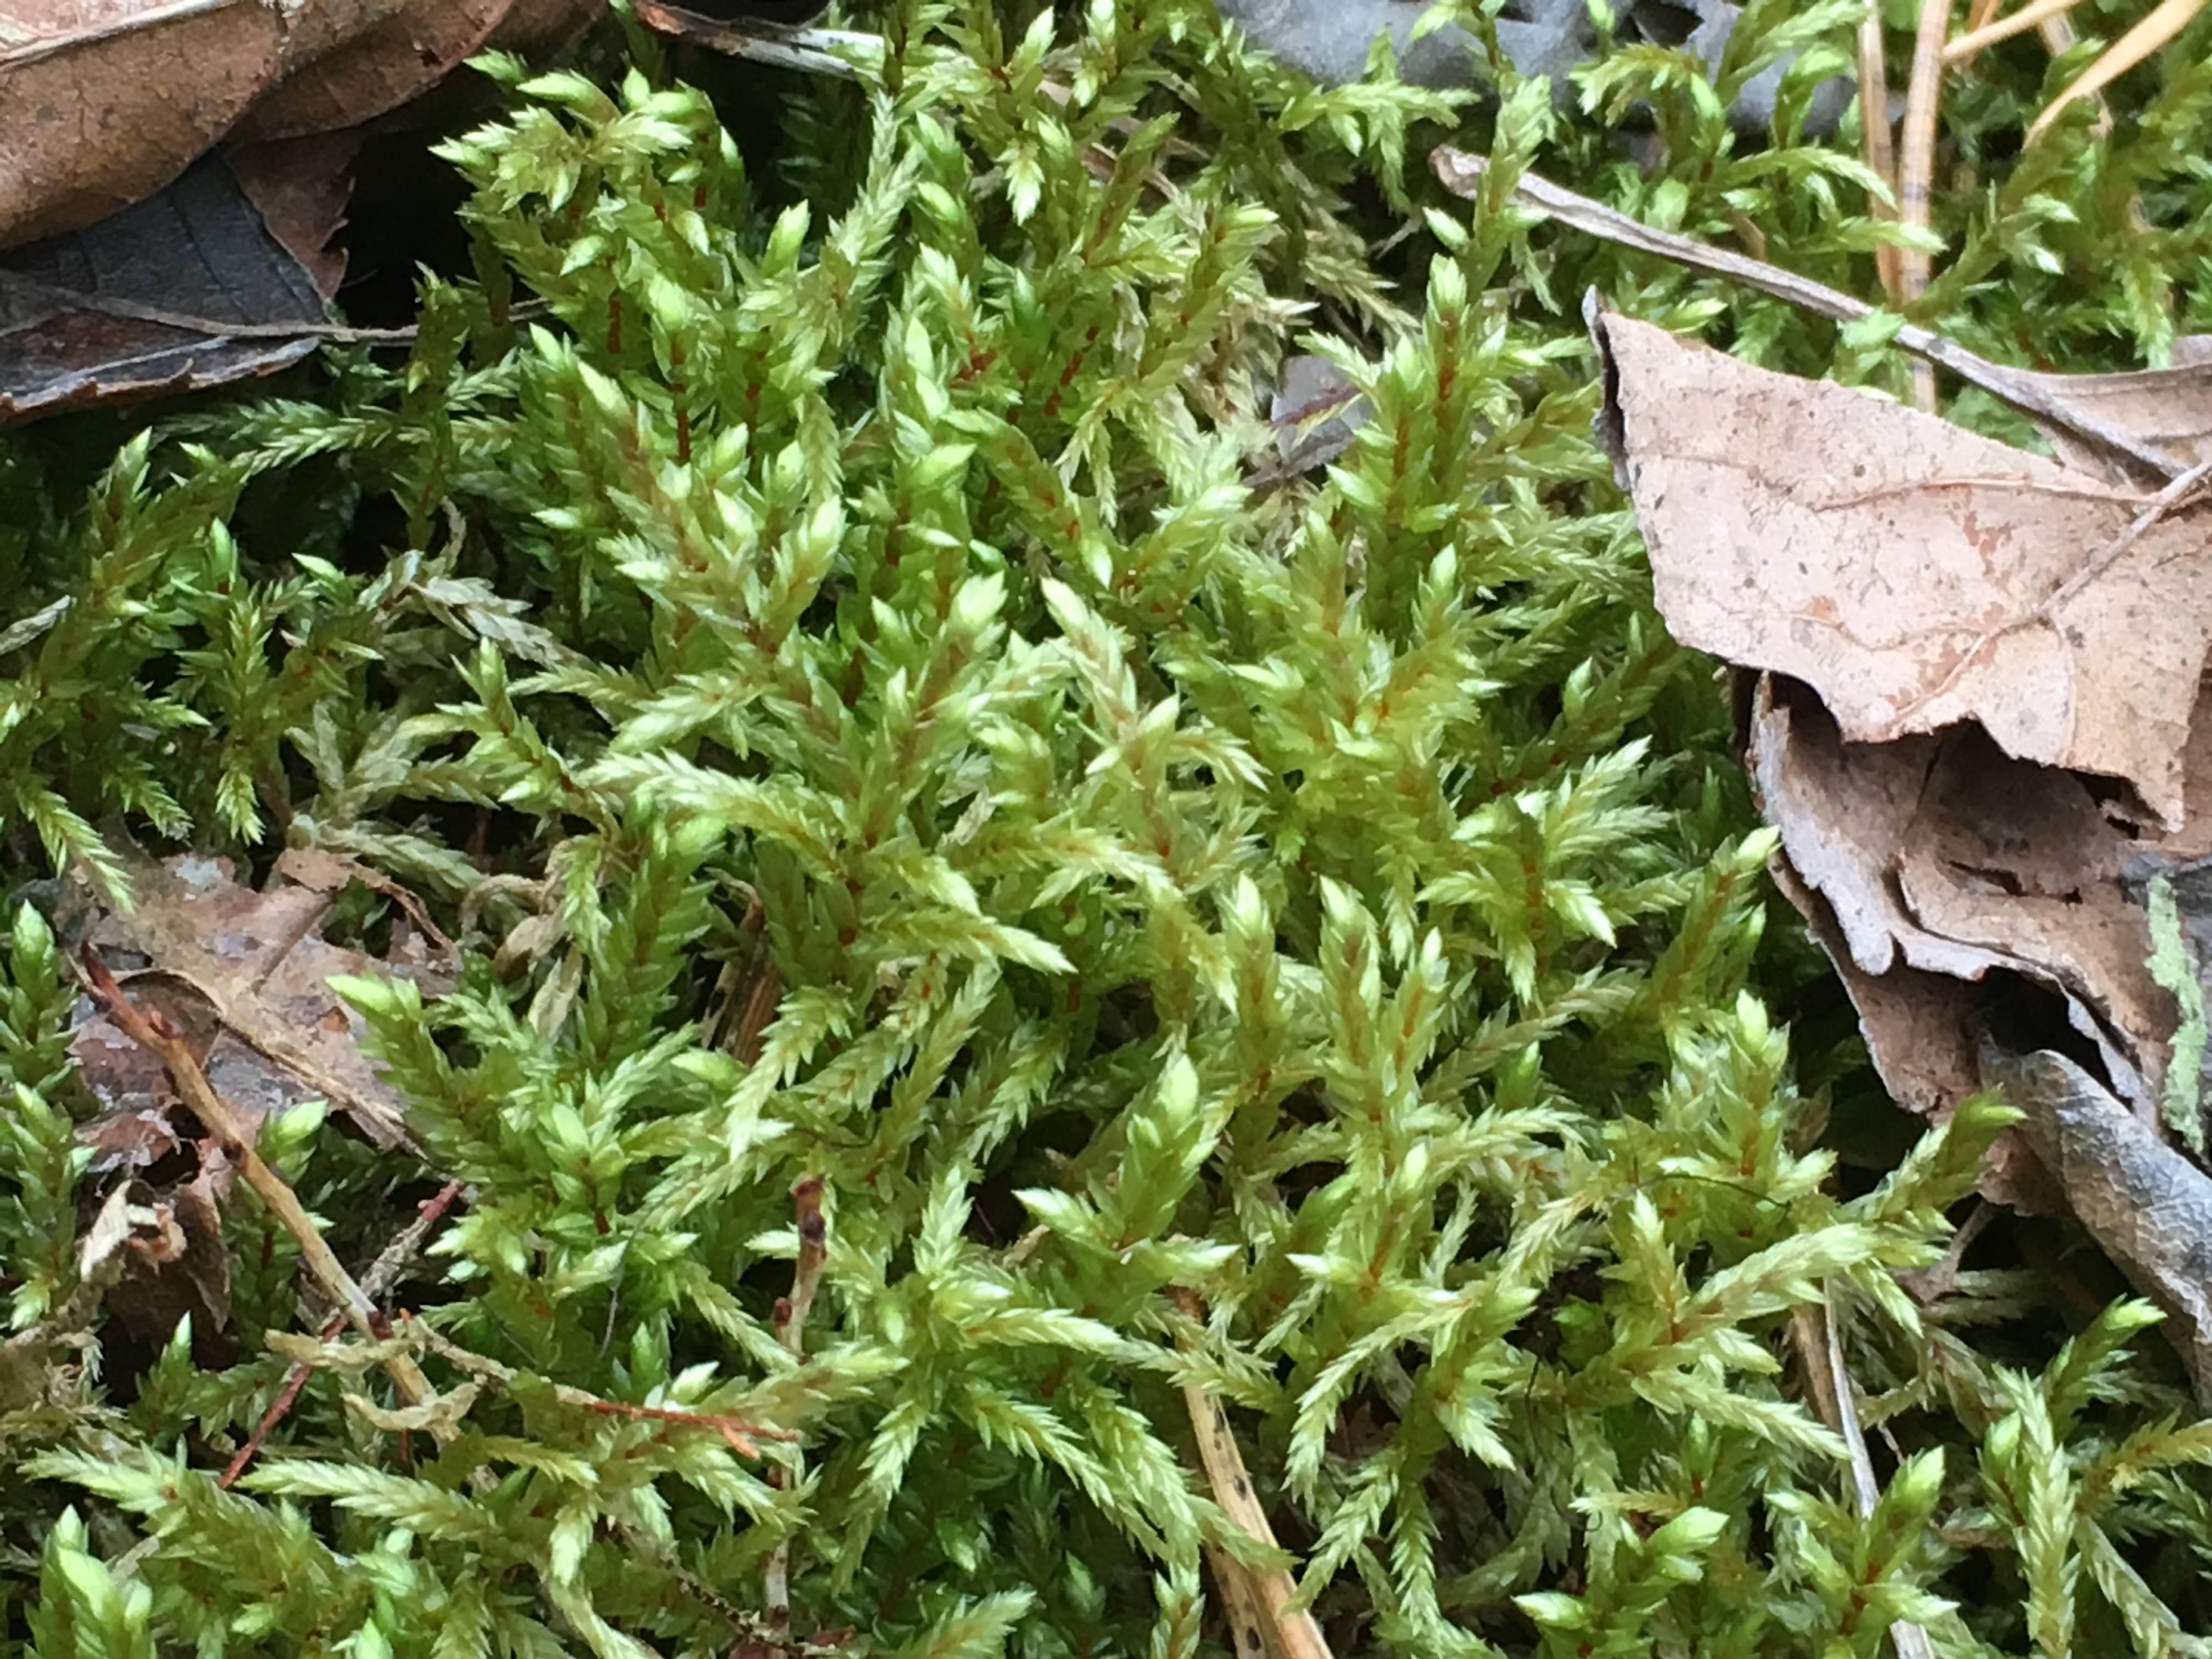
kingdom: Plantae
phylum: Bryophyta
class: Bryopsida
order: Hypnales
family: Hylocomiaceae
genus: Pleurozium
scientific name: Pleurozium schreberi
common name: Trind fyrremos
